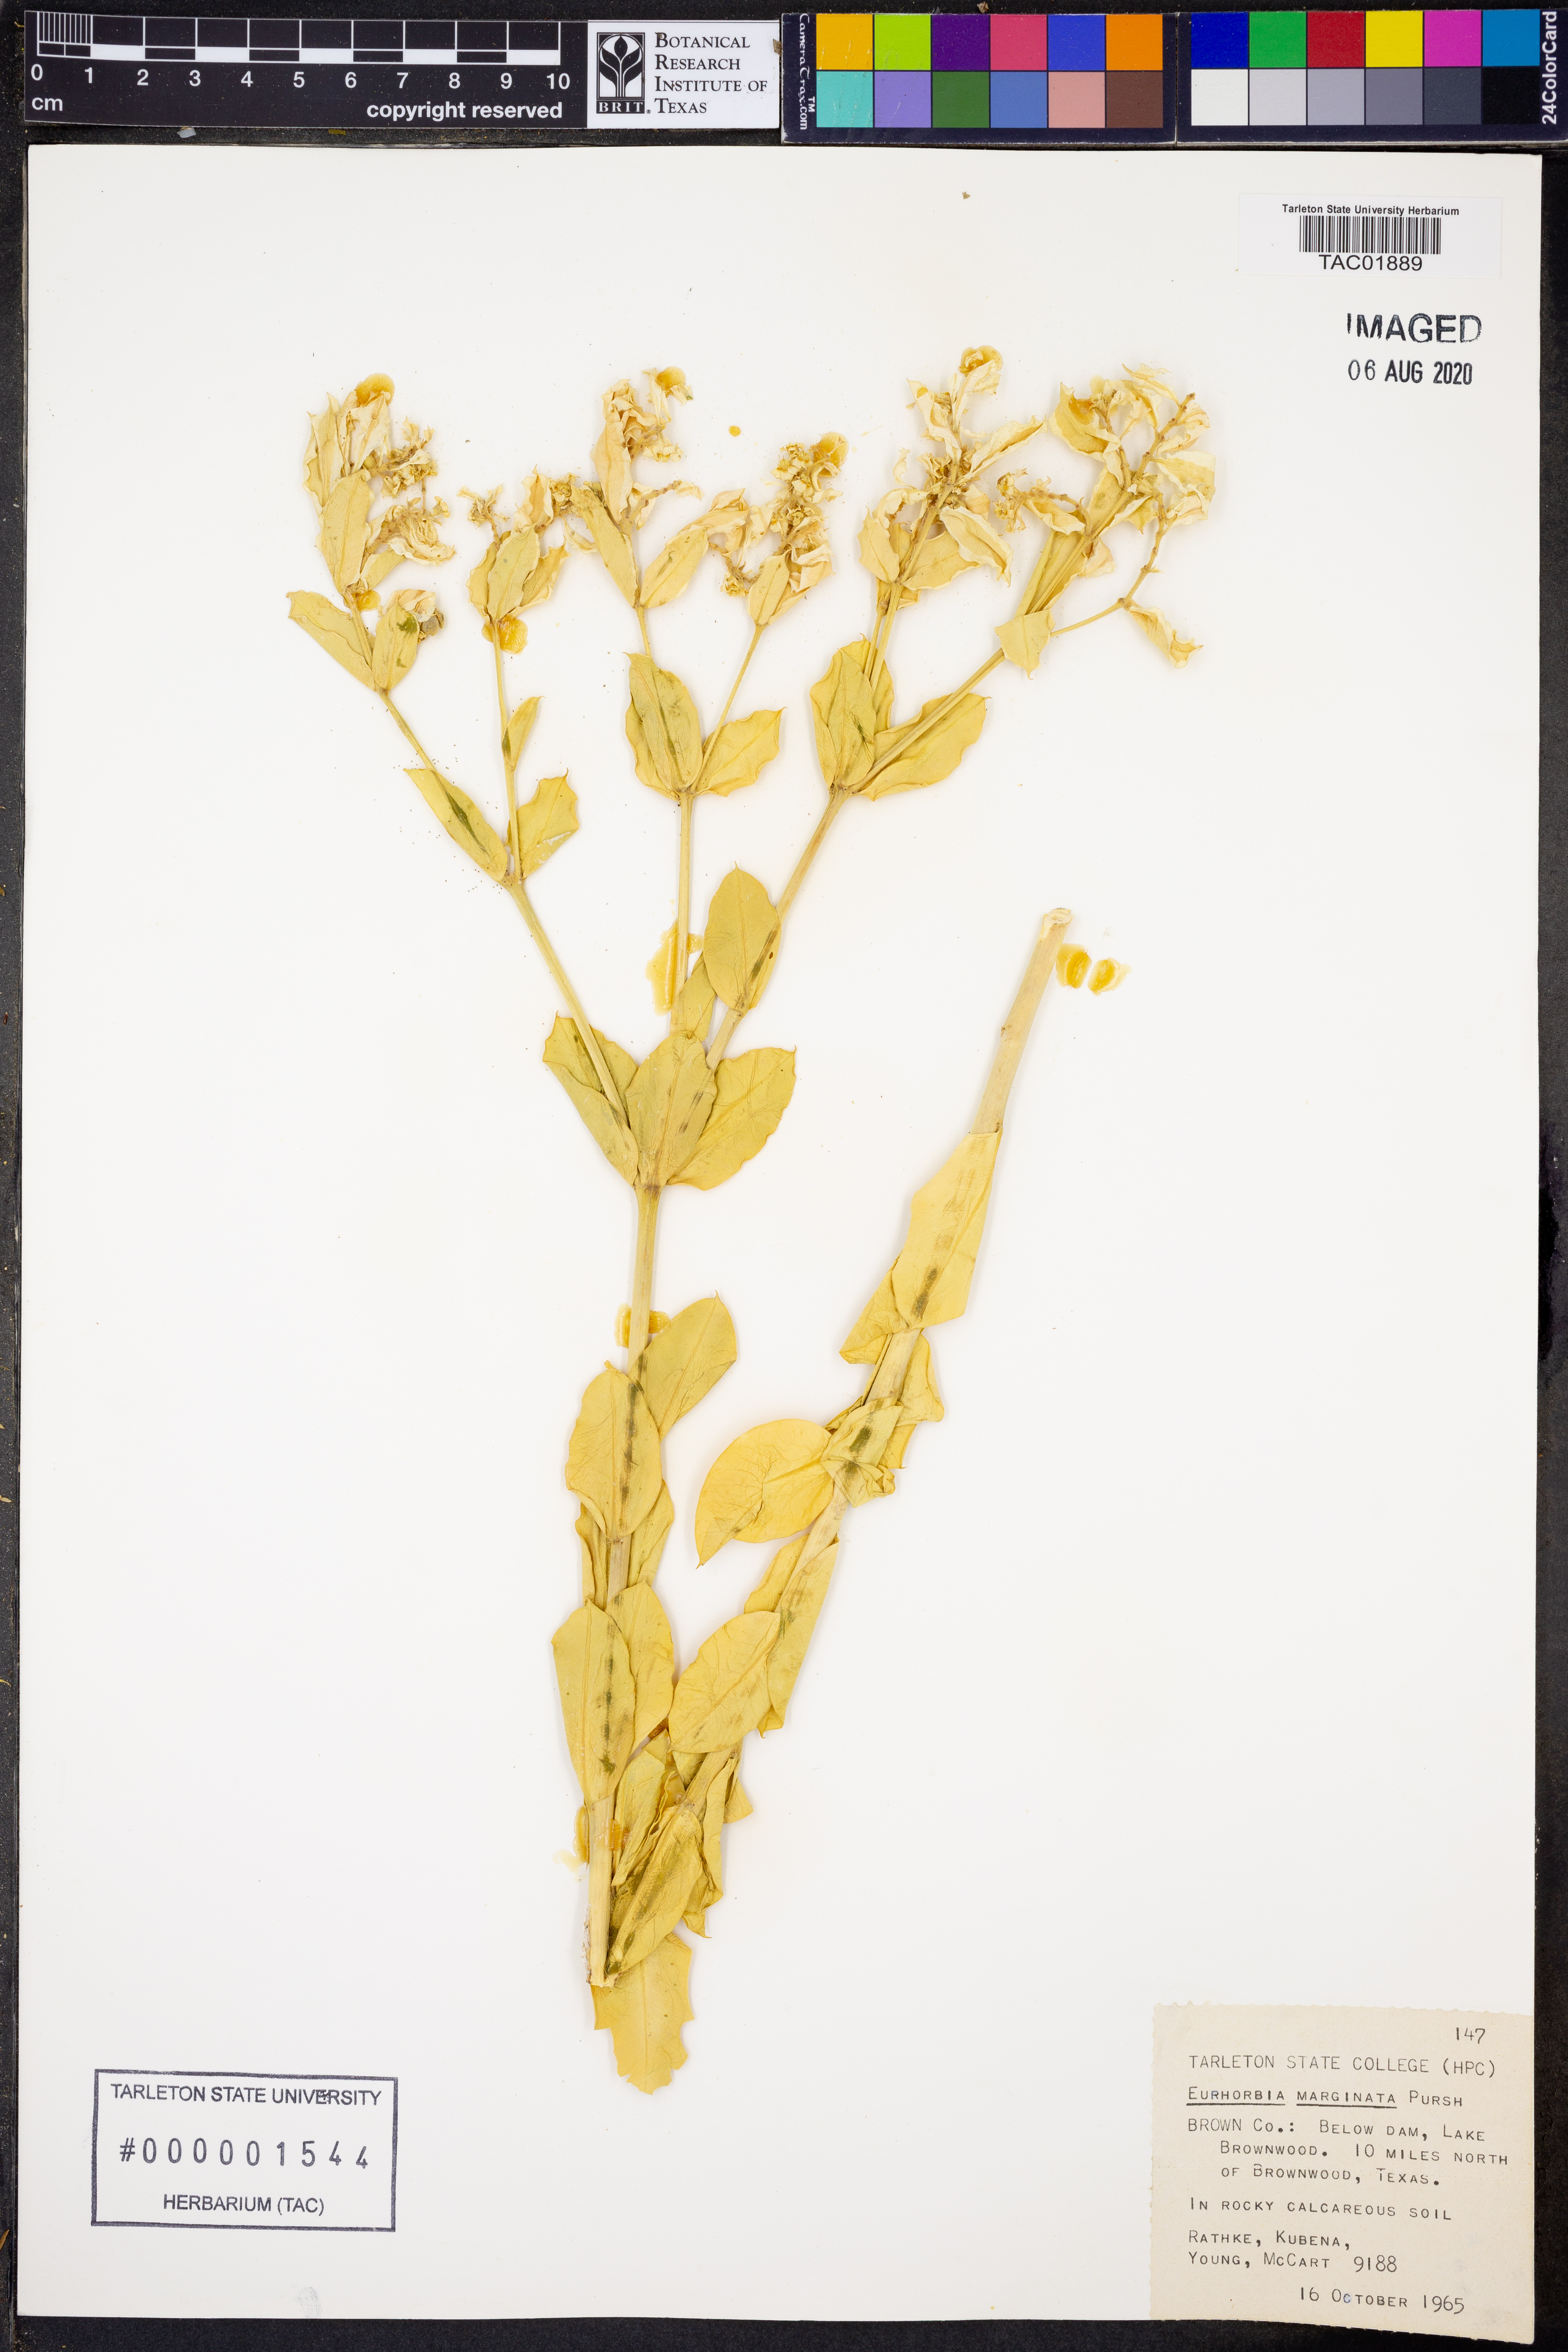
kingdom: Plantae
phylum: Tracheophyta
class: Magnoliopsida
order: Malpighiales
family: Euphorbiaceae
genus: Euphorbia
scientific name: Euphorbia marginata
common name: Ghostweed
